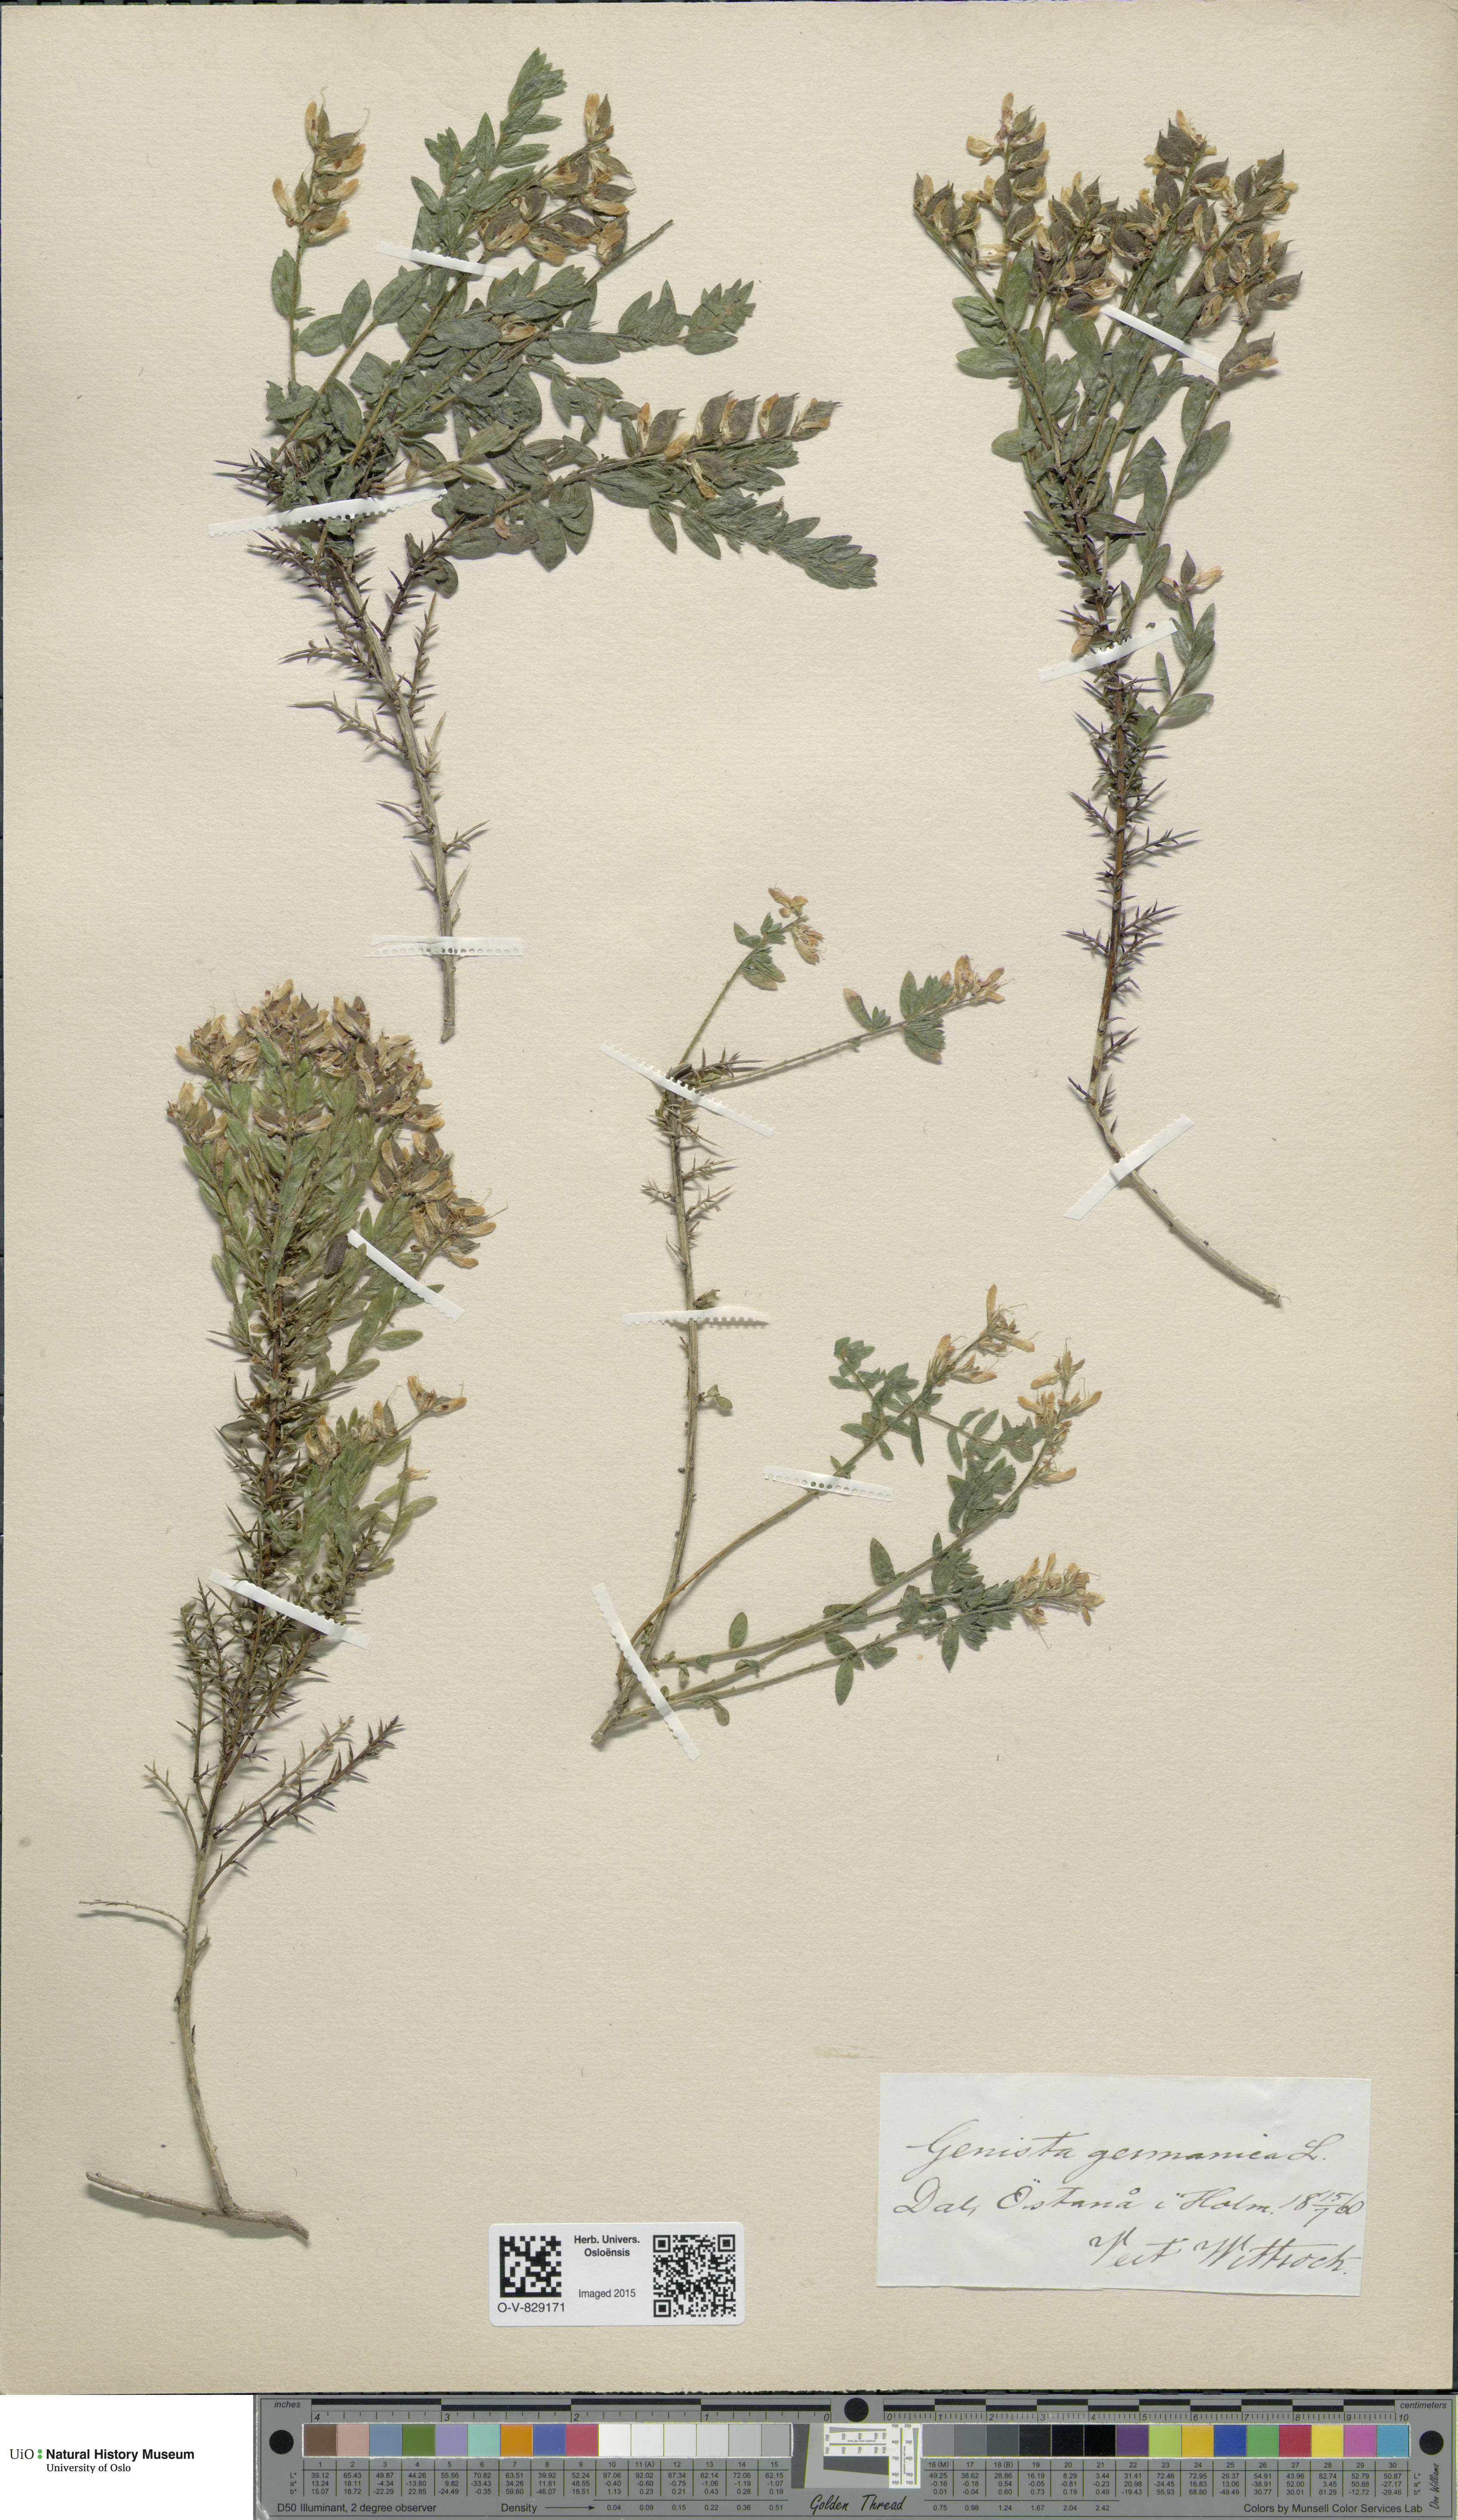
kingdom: Plantae
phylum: Tracheophyta
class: Magnoliopsida
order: Fabales
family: Fabaceae
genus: Genista
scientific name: Genista germanica
